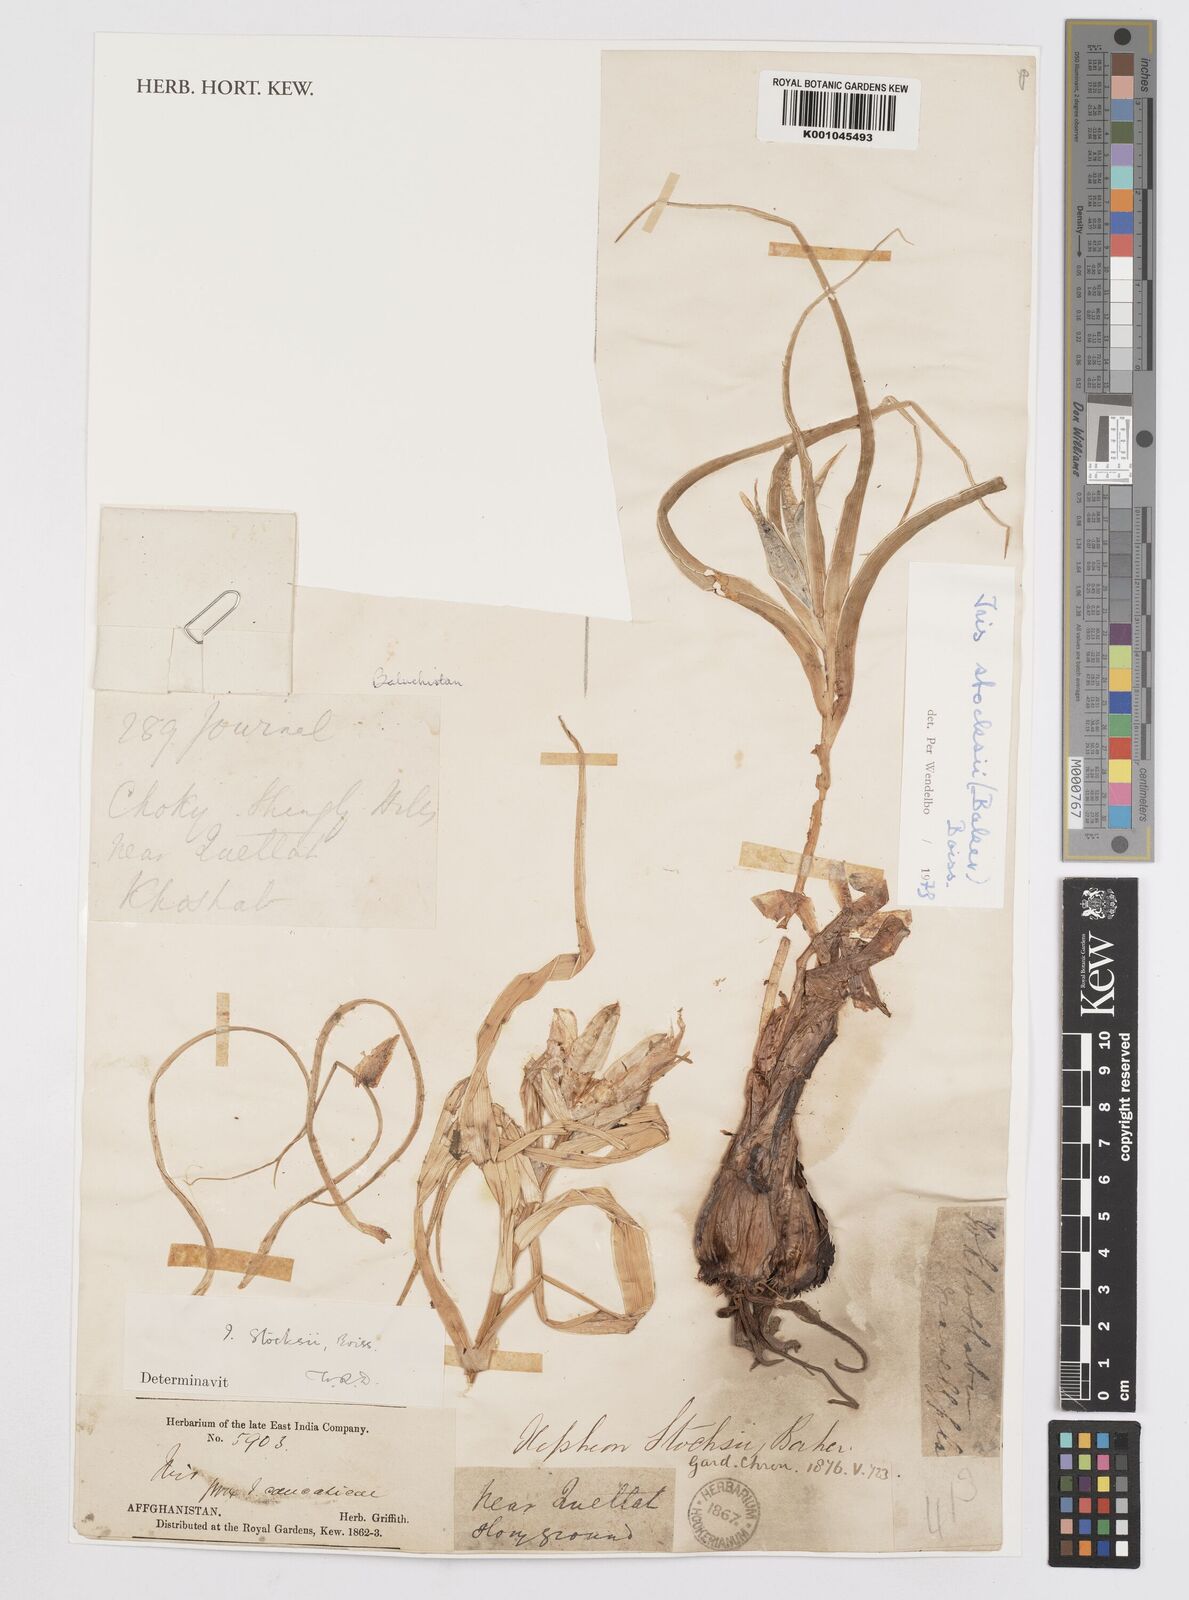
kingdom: Plantae
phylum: Tracheophyta
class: Liliopsida
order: Asparagales
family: Iridaceae
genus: Iris
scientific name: Iris stocksii
